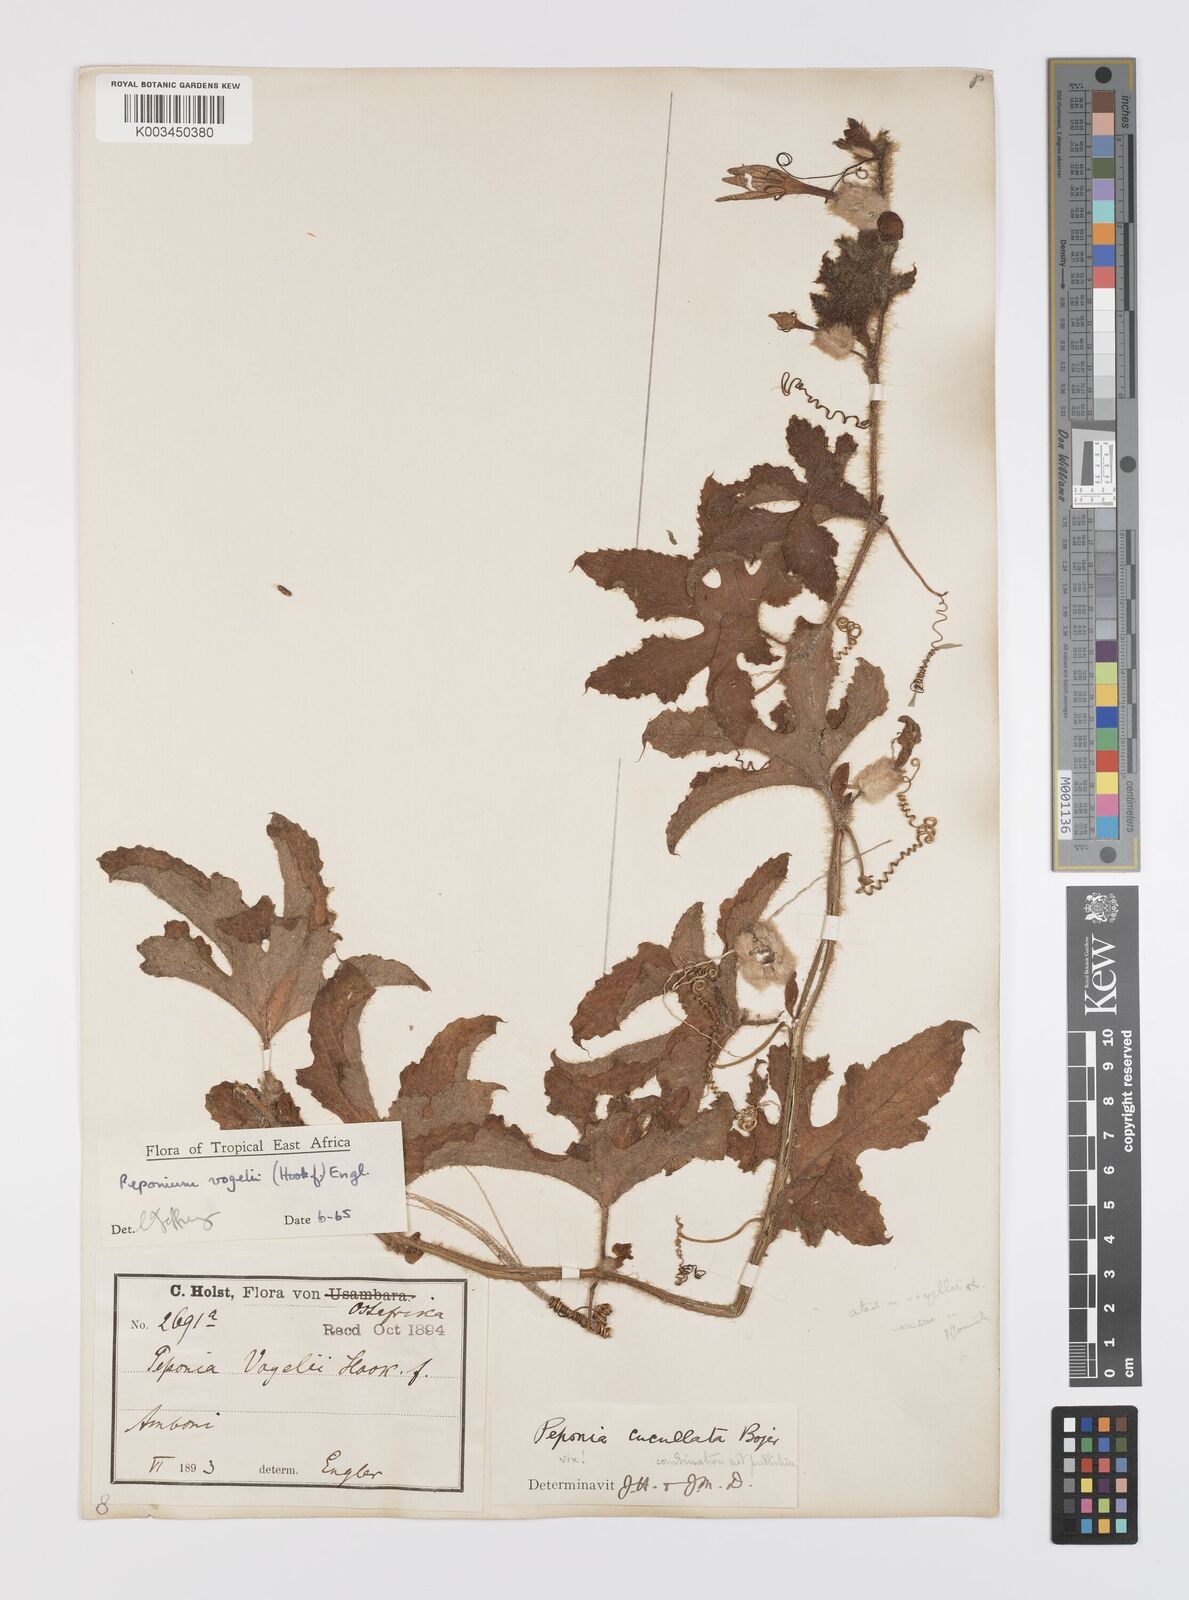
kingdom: Plantae
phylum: Tracheophyta
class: Magnoliopsida
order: Cucurbitales
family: Cucurbitaceae
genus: Peponium
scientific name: Peponium vogelii
